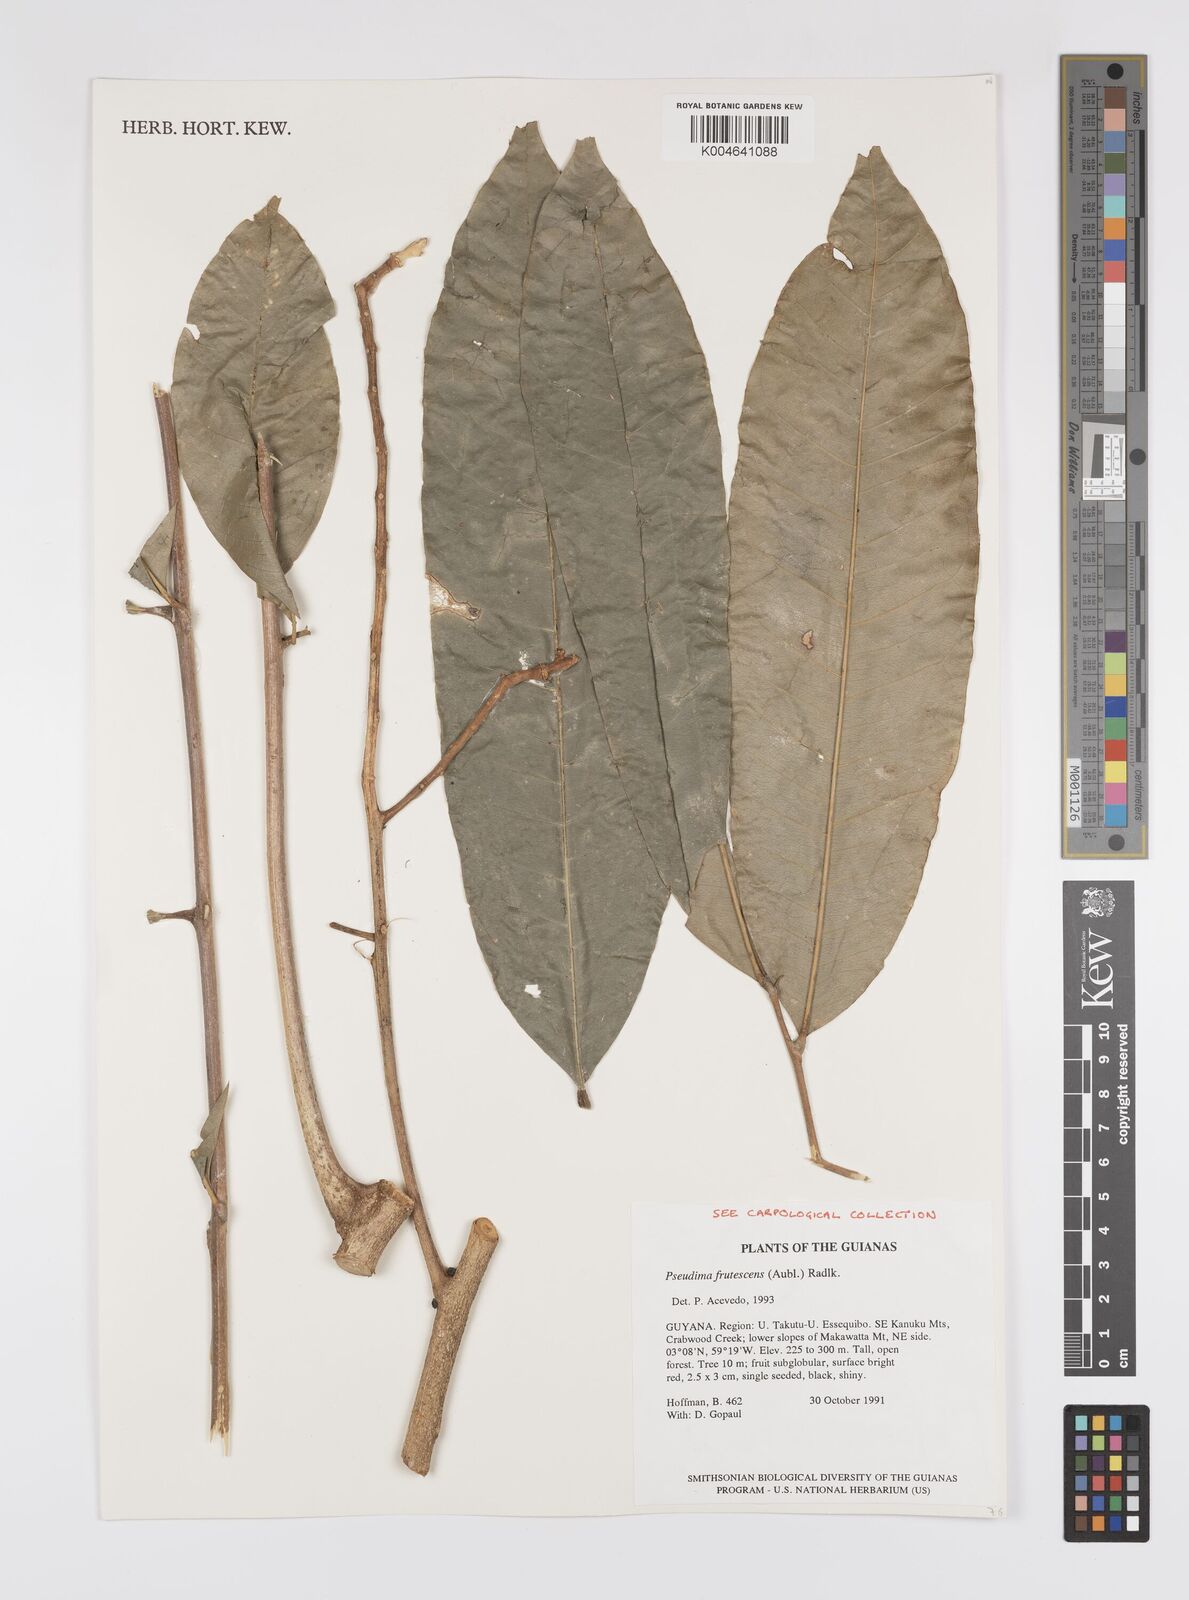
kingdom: Plantae
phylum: Tracheophyta
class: Magnoliopsida
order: Sapindales
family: Sapindaceae
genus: Pseudima
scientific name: Pseudima frutescens
